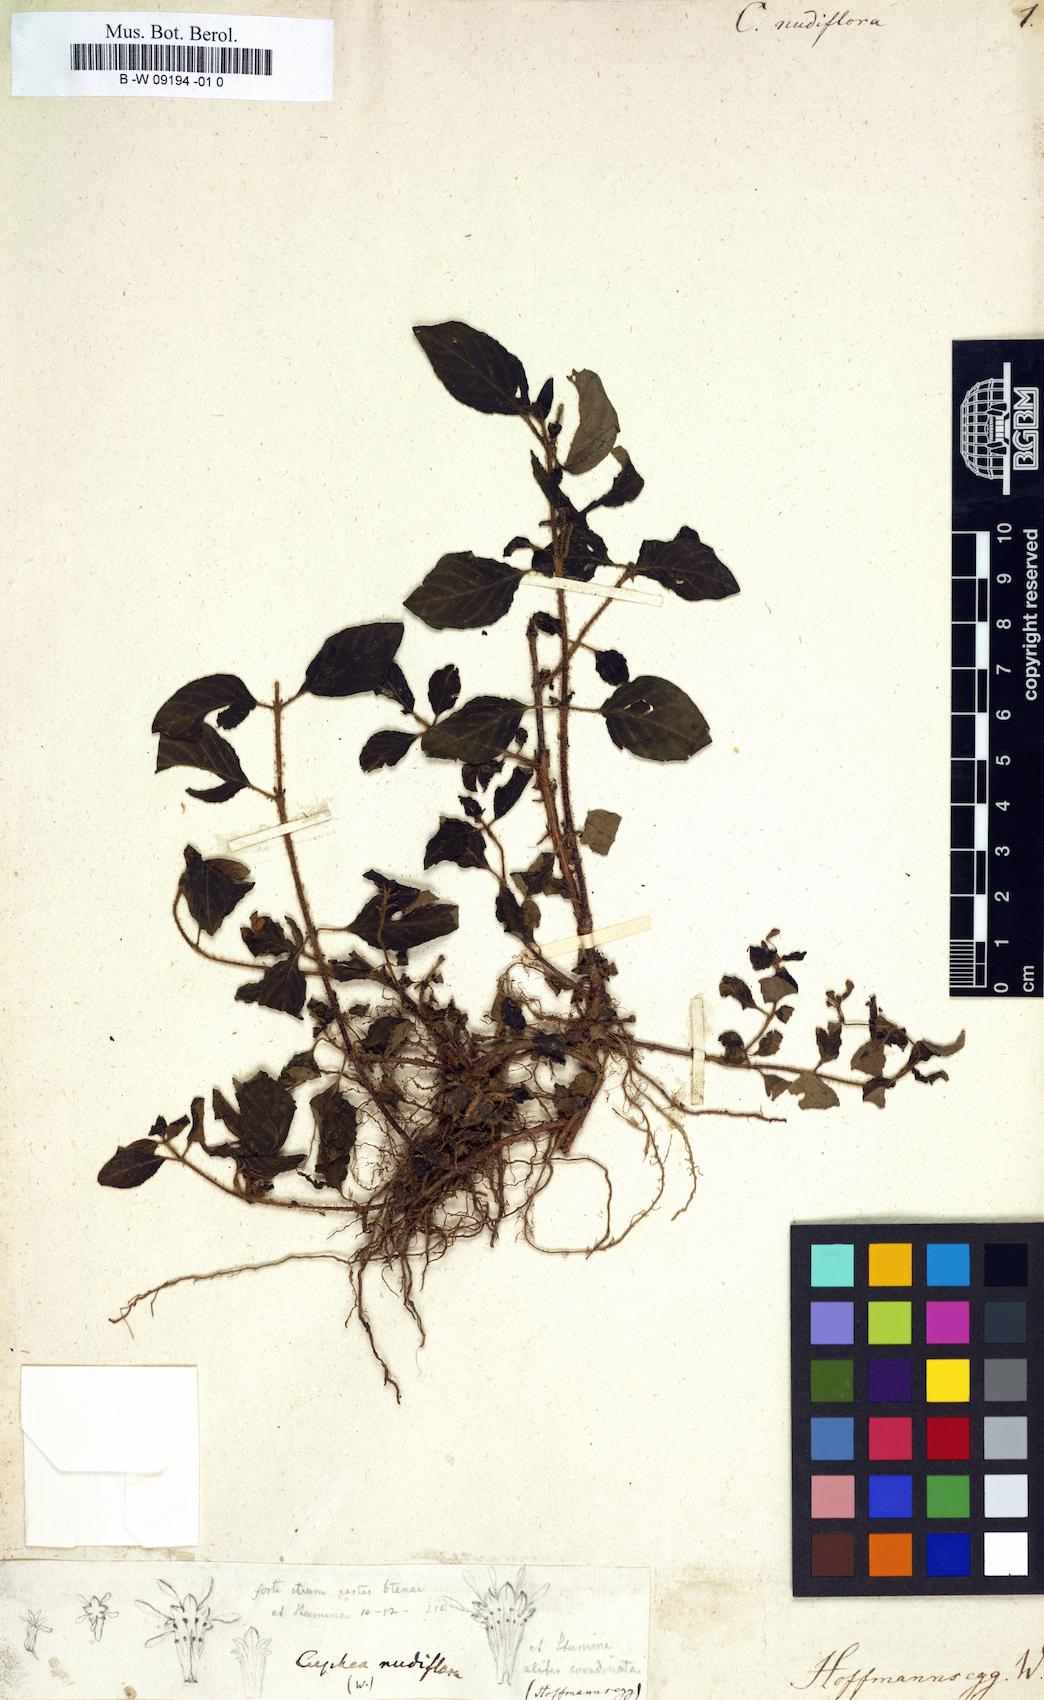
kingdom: Plantae
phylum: Tracheophyta
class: Magnoliopsida
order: Myrtales
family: Lythraceae
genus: Cuphea
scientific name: Cuphea racemosa
